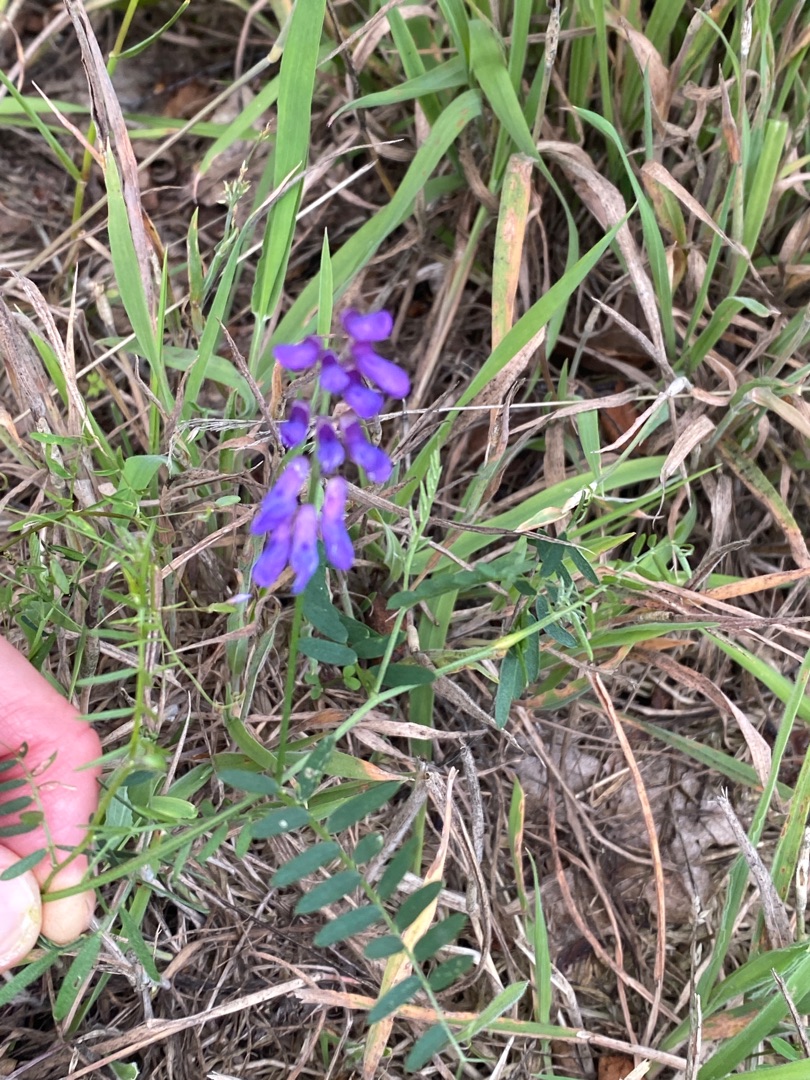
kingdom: Plantae
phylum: Tracheophyta
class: Magnoliopsida
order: Fabales
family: Fabaceae
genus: Vicia
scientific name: Vicia cracca
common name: Muse-vikke
